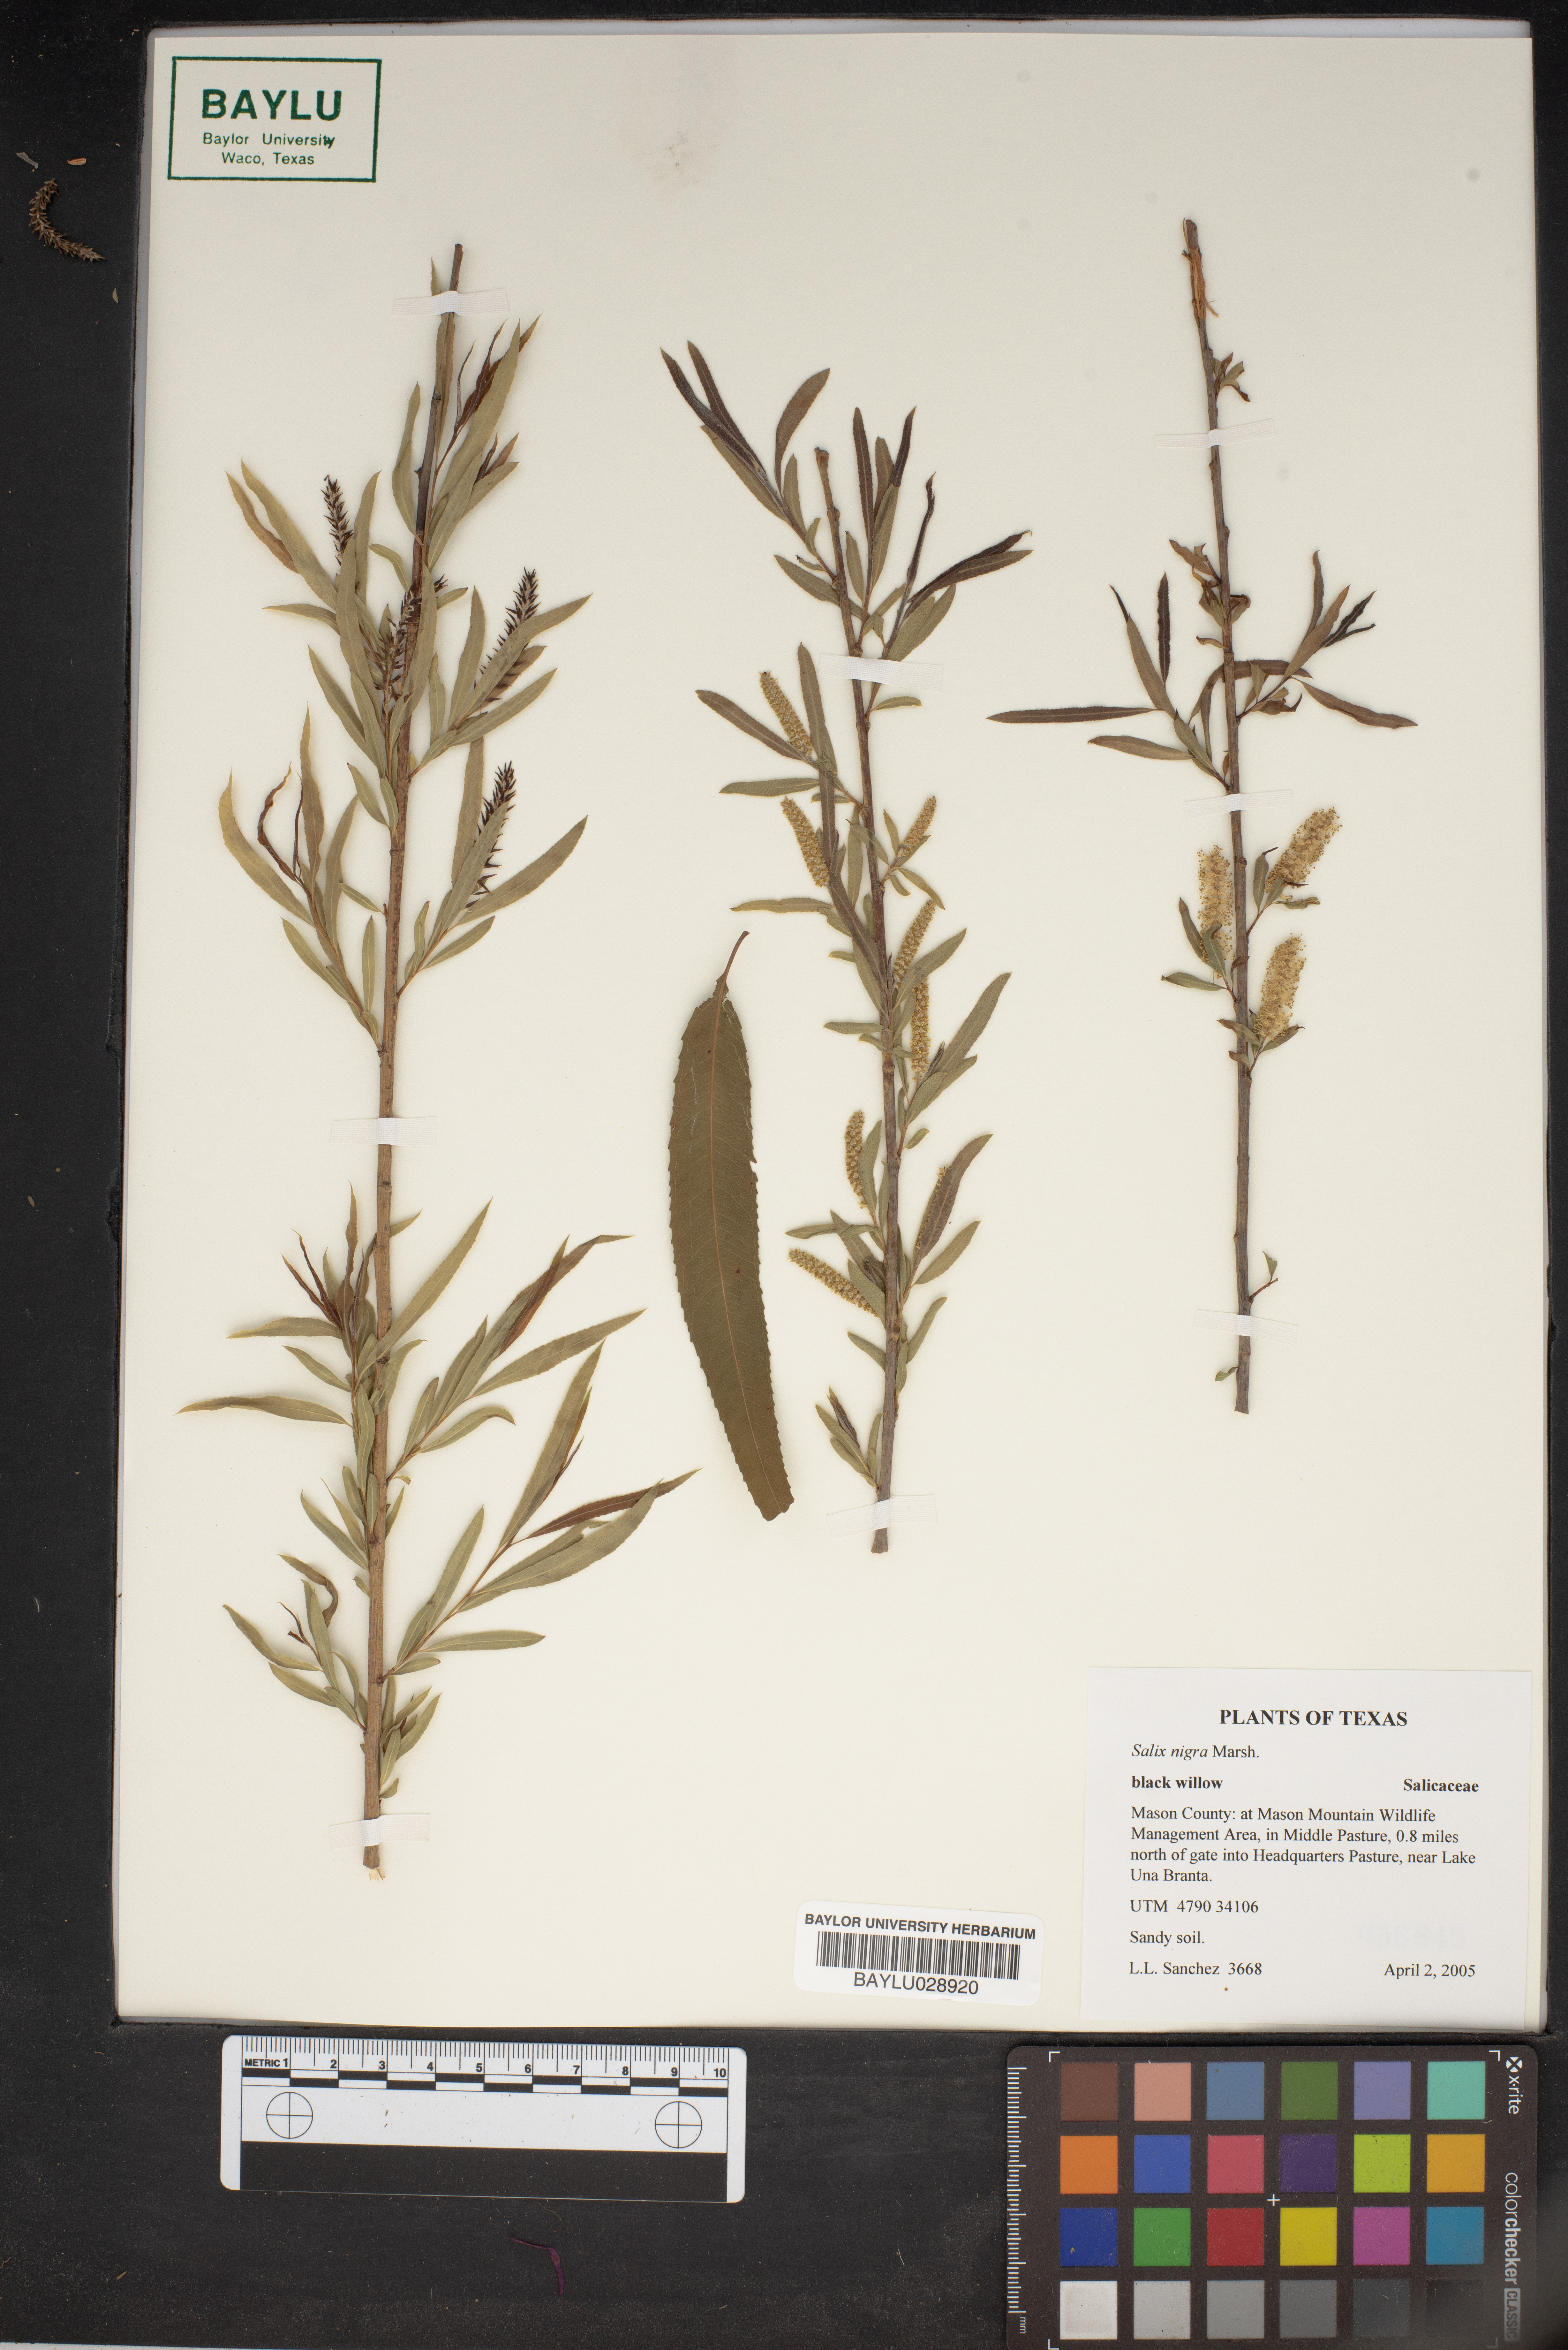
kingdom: Plantae
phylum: Tracheophyta
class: Magnoliopsida
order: Malpighiales
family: Salicaceae
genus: Salix
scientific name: Salix nigra
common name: Black willow
